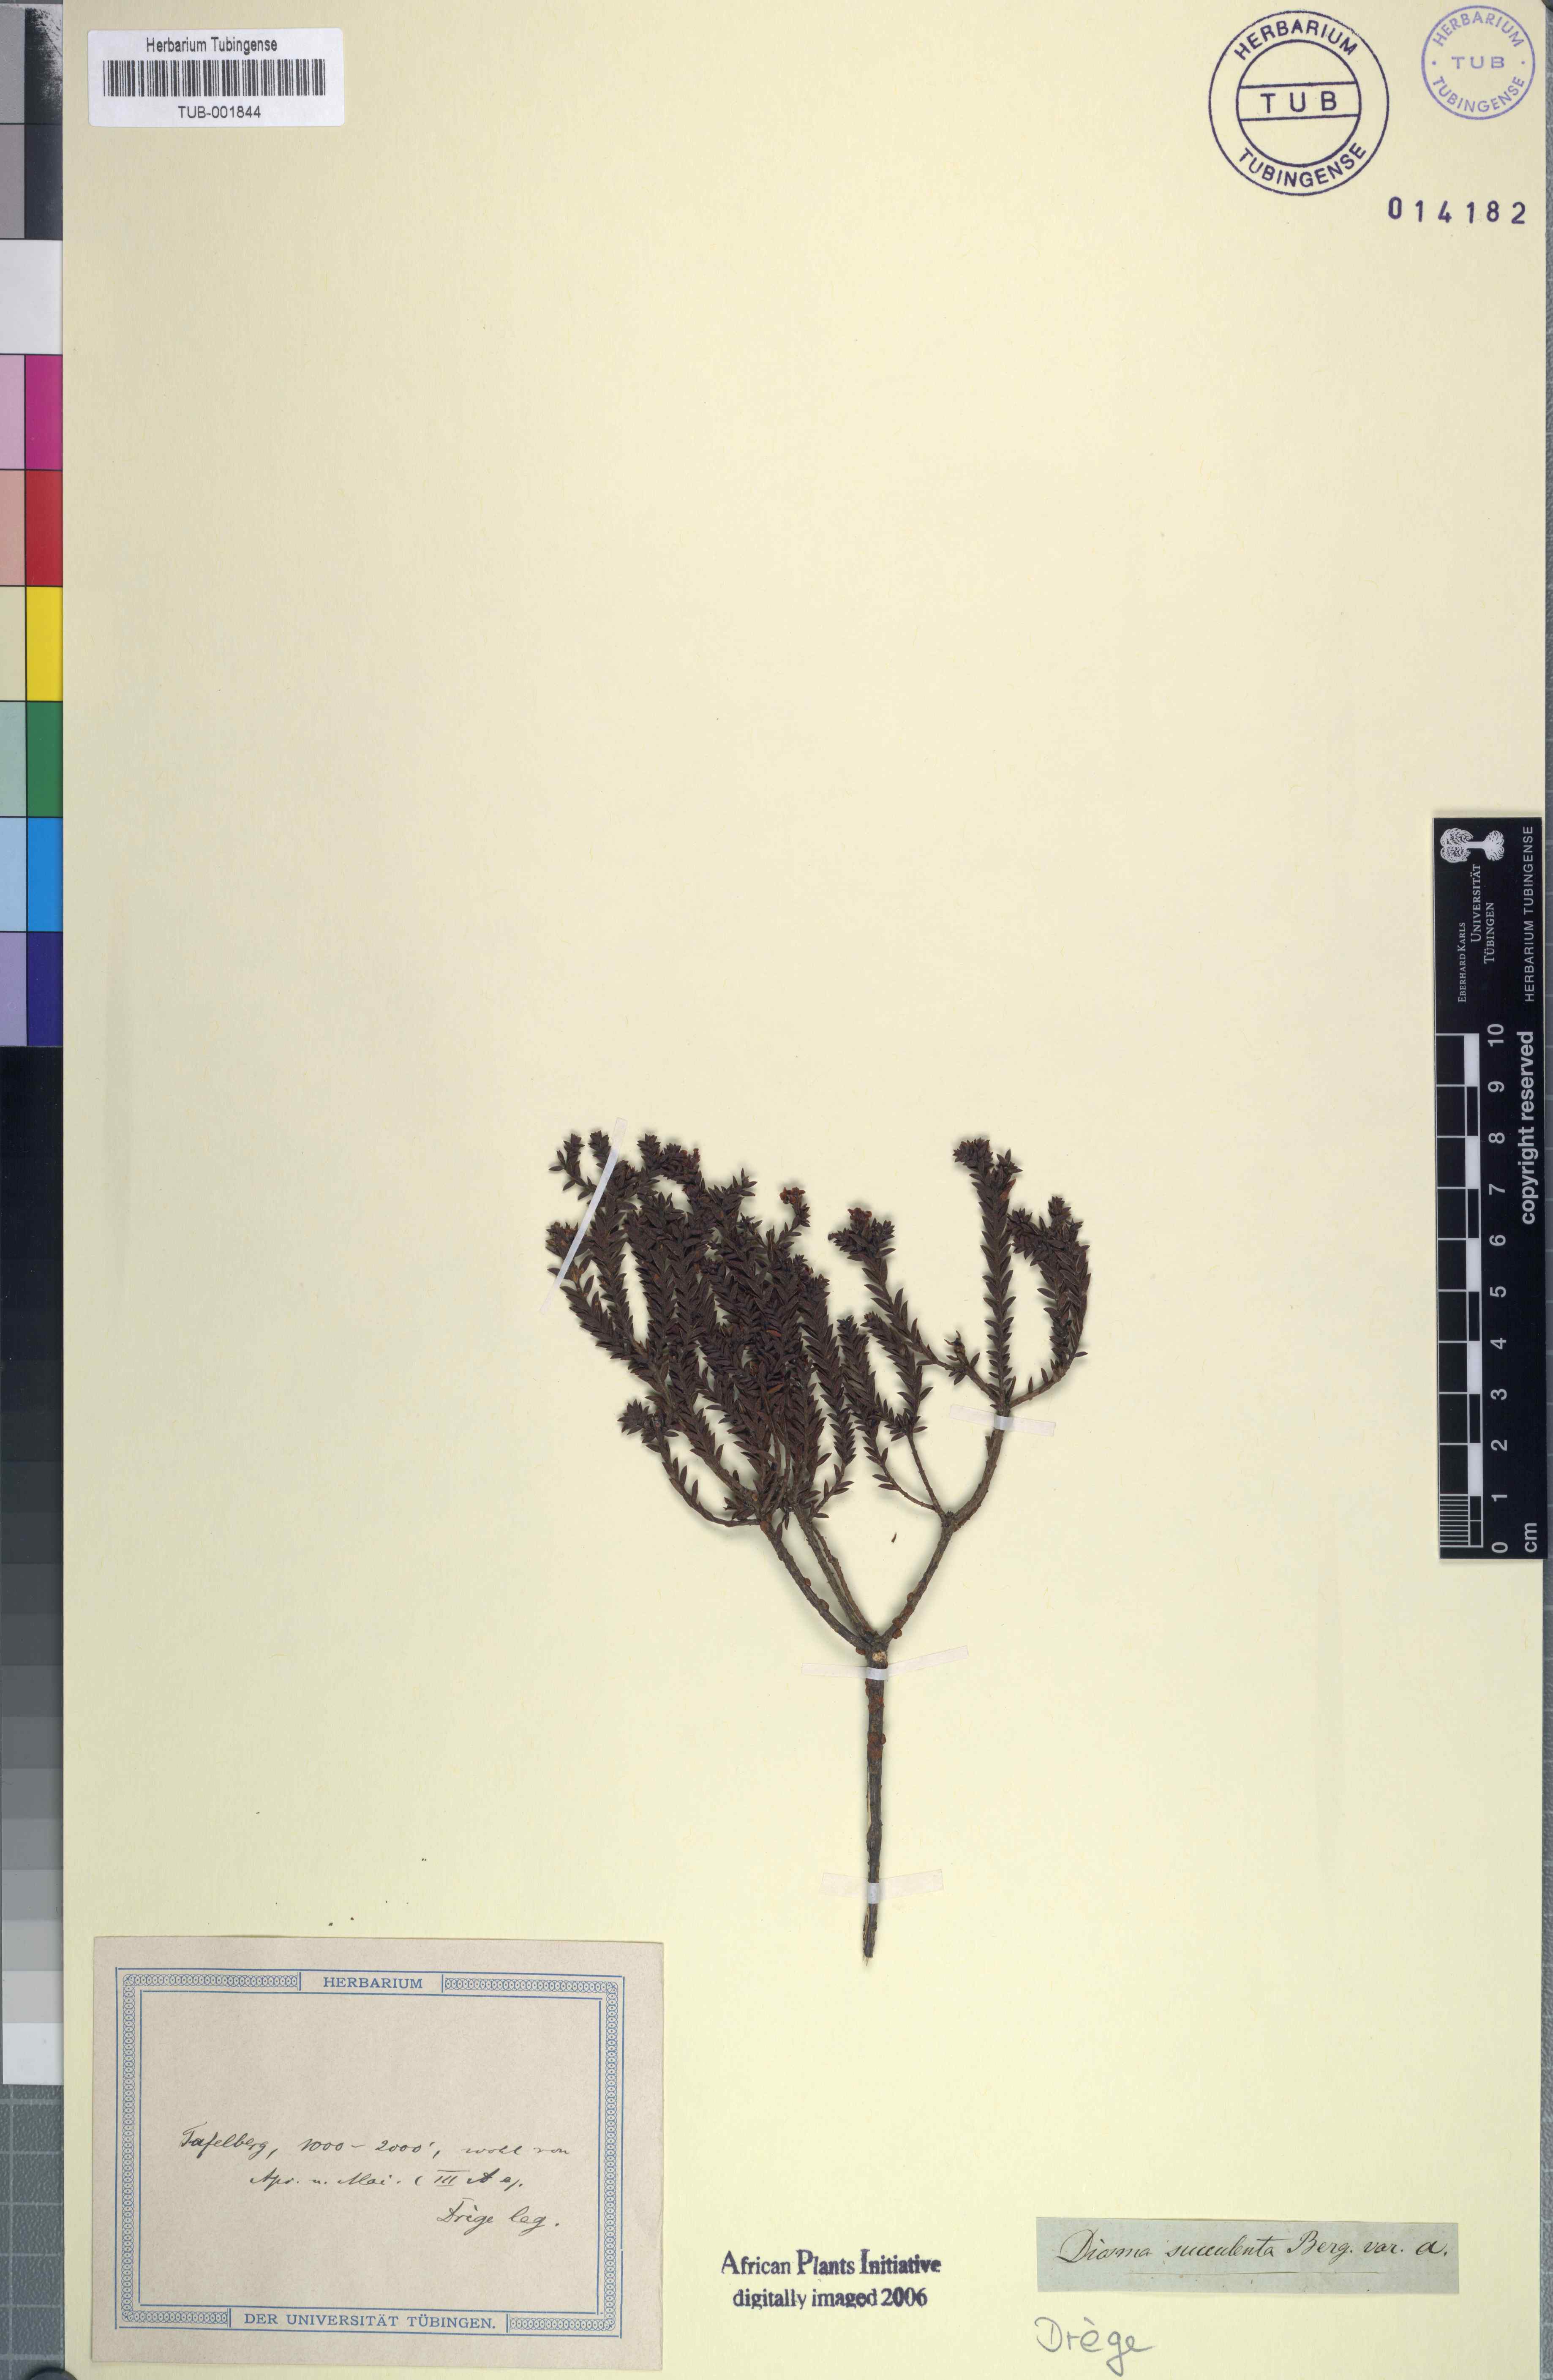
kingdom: Plantae
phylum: Tracheophyta
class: Magnoliopsida
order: Sapindales
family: Rutaceae
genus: Diosma
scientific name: Diosma oppositifolia
